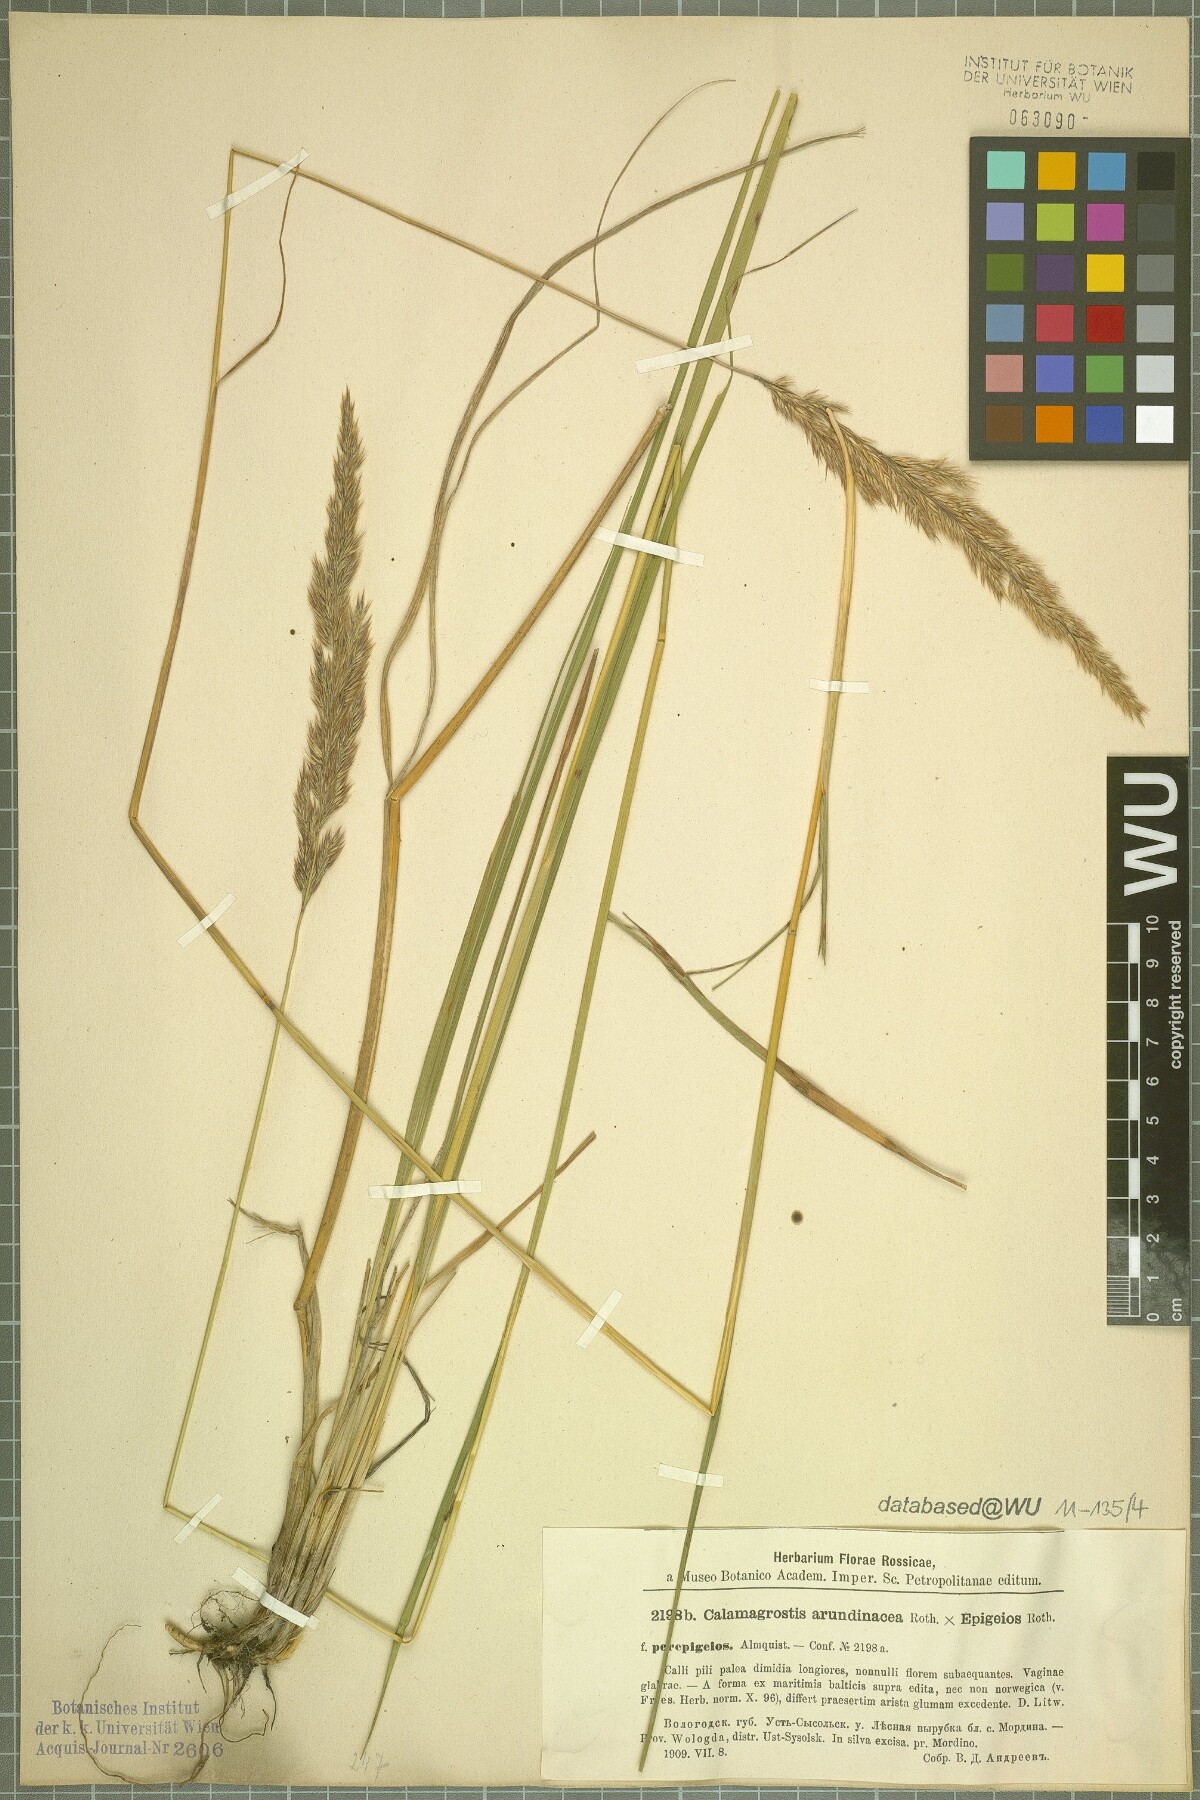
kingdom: Plantae
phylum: Tracheophyta
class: Liliopsida
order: Poales
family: Poaceae
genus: Calamagrostis
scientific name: Calamagrostis arundinacea
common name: Metskastik
